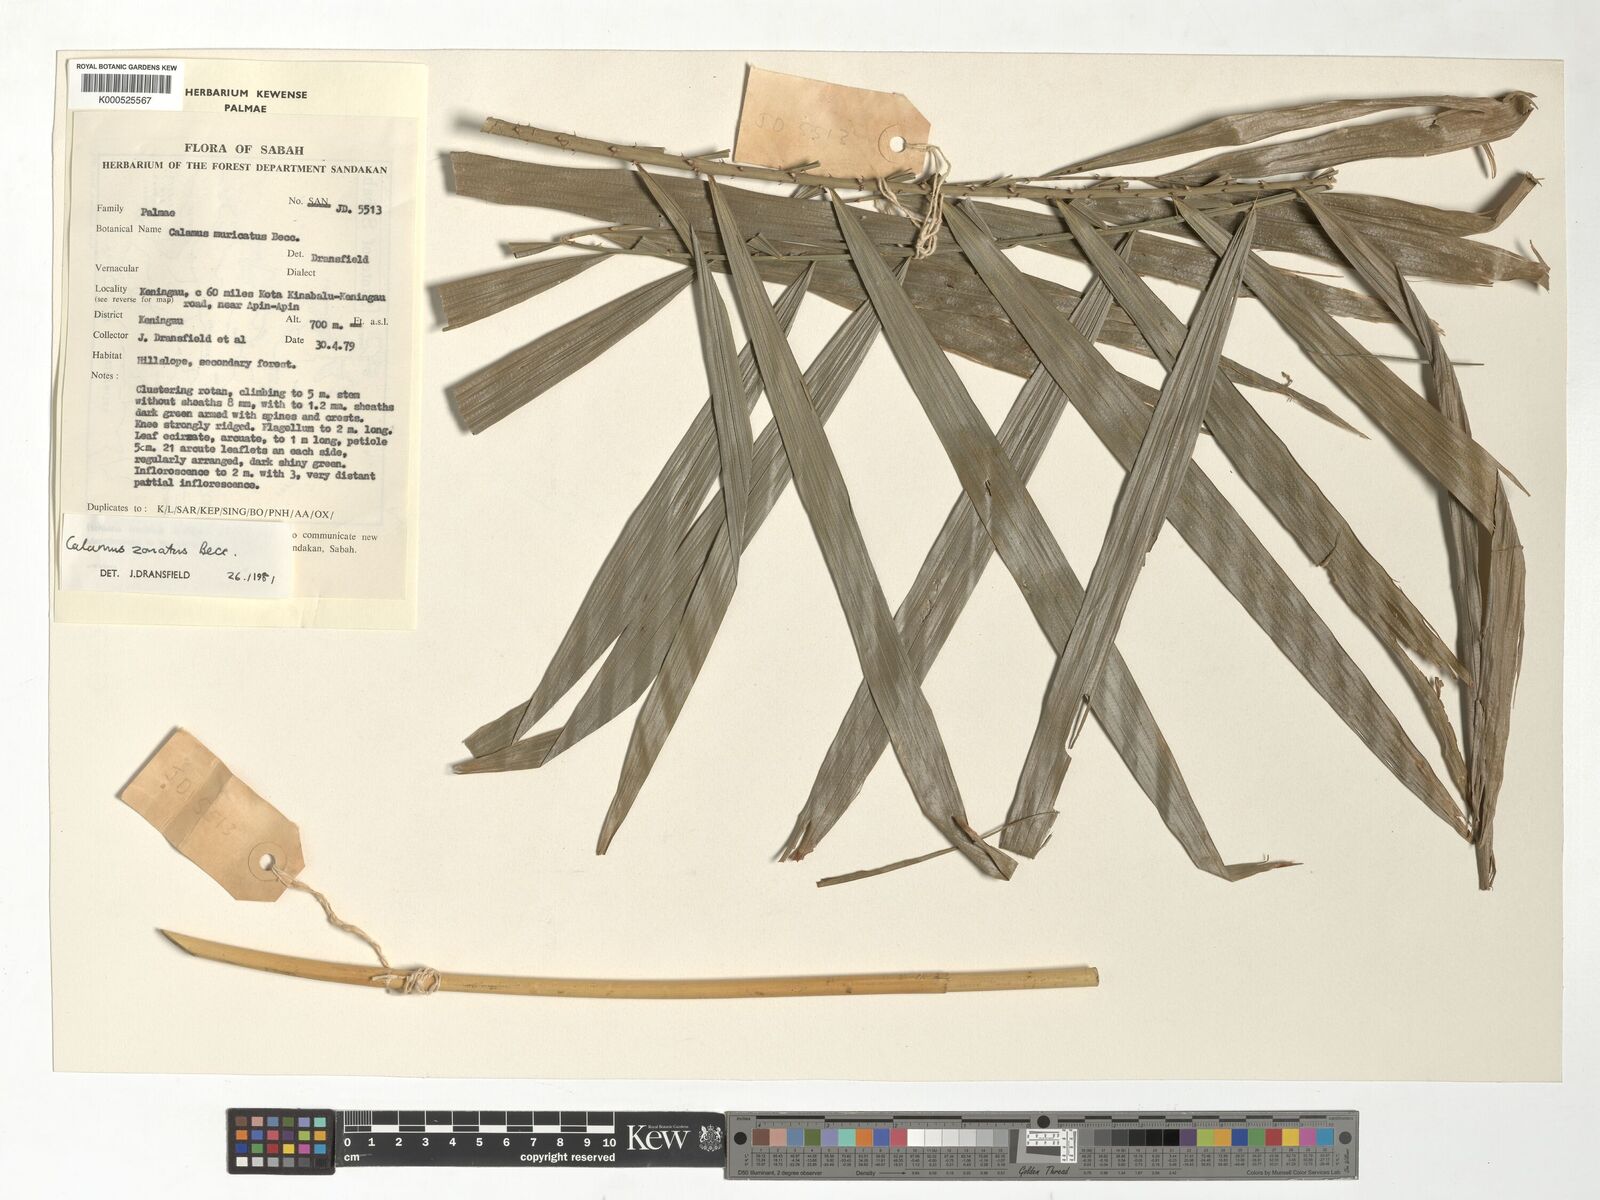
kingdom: Plantae
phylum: Tracheophyta
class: Liliopsida
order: Arecales
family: Arecaceae
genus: Calamus
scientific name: Calamus zonatus
